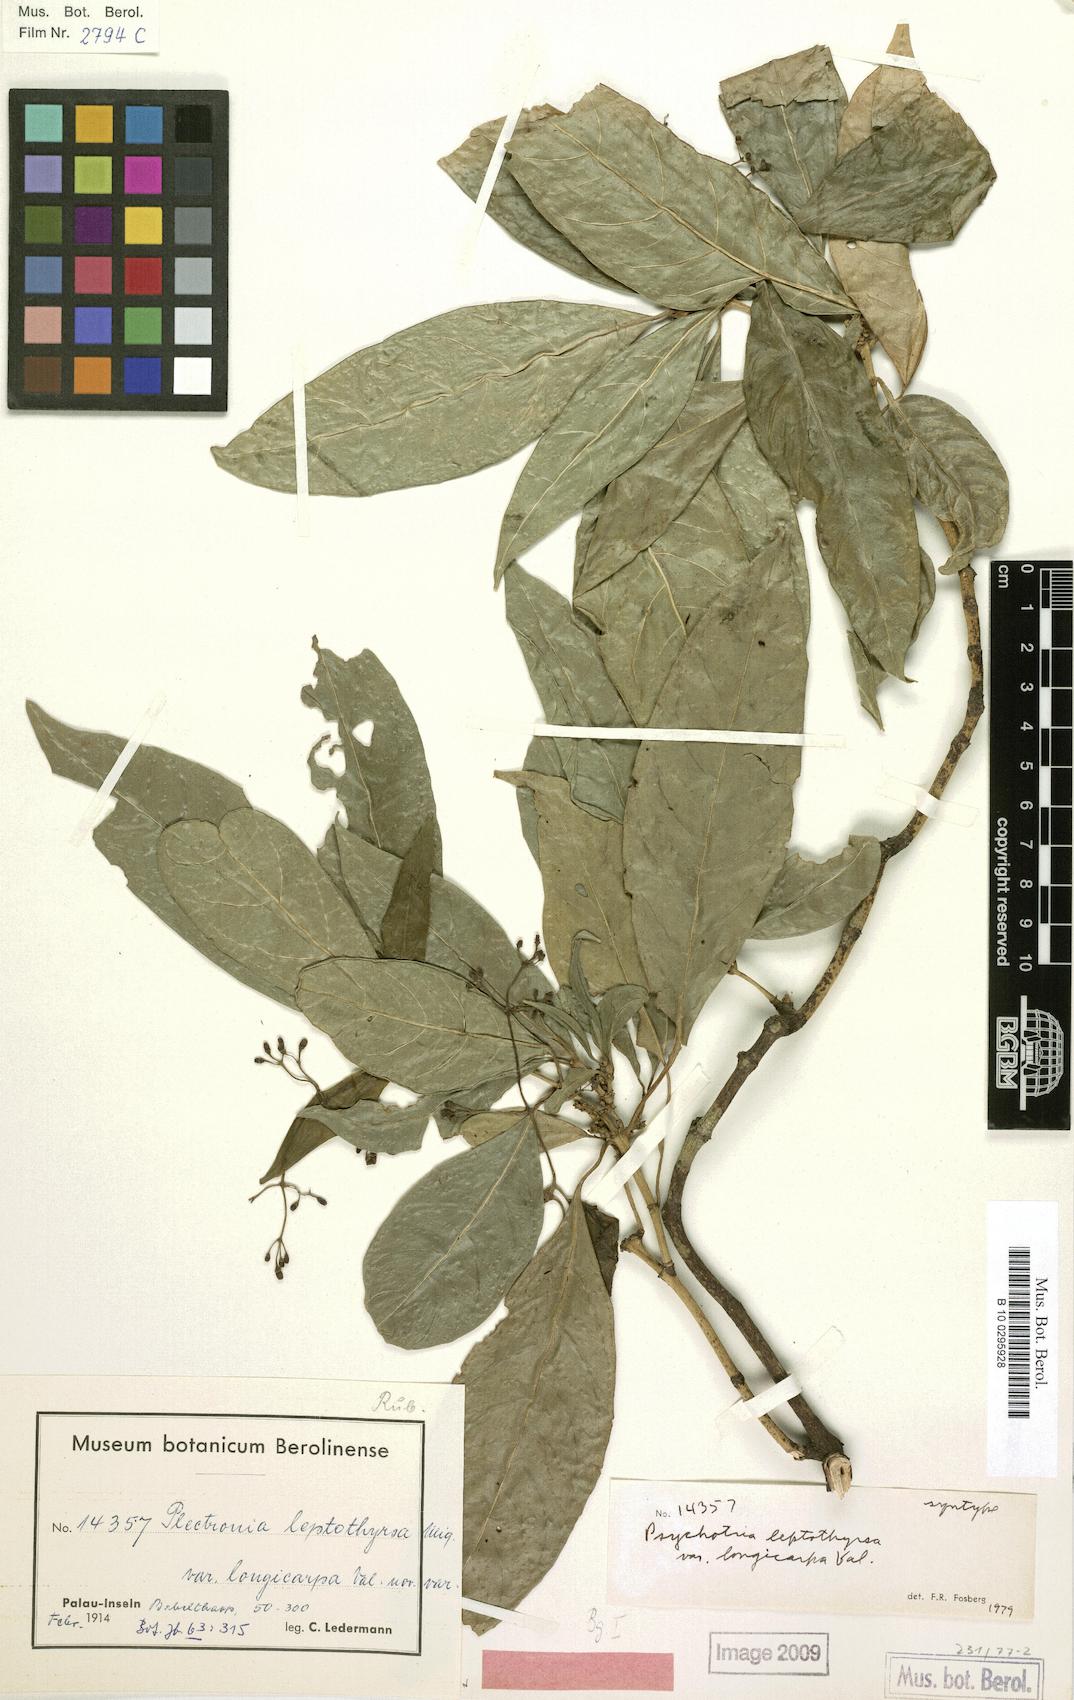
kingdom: Plantae
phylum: Tracheophyta
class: Magnoliopsida
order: Gentianales
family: Rubiaceae
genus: Eumachia
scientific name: Eumachia leptothyrsa
